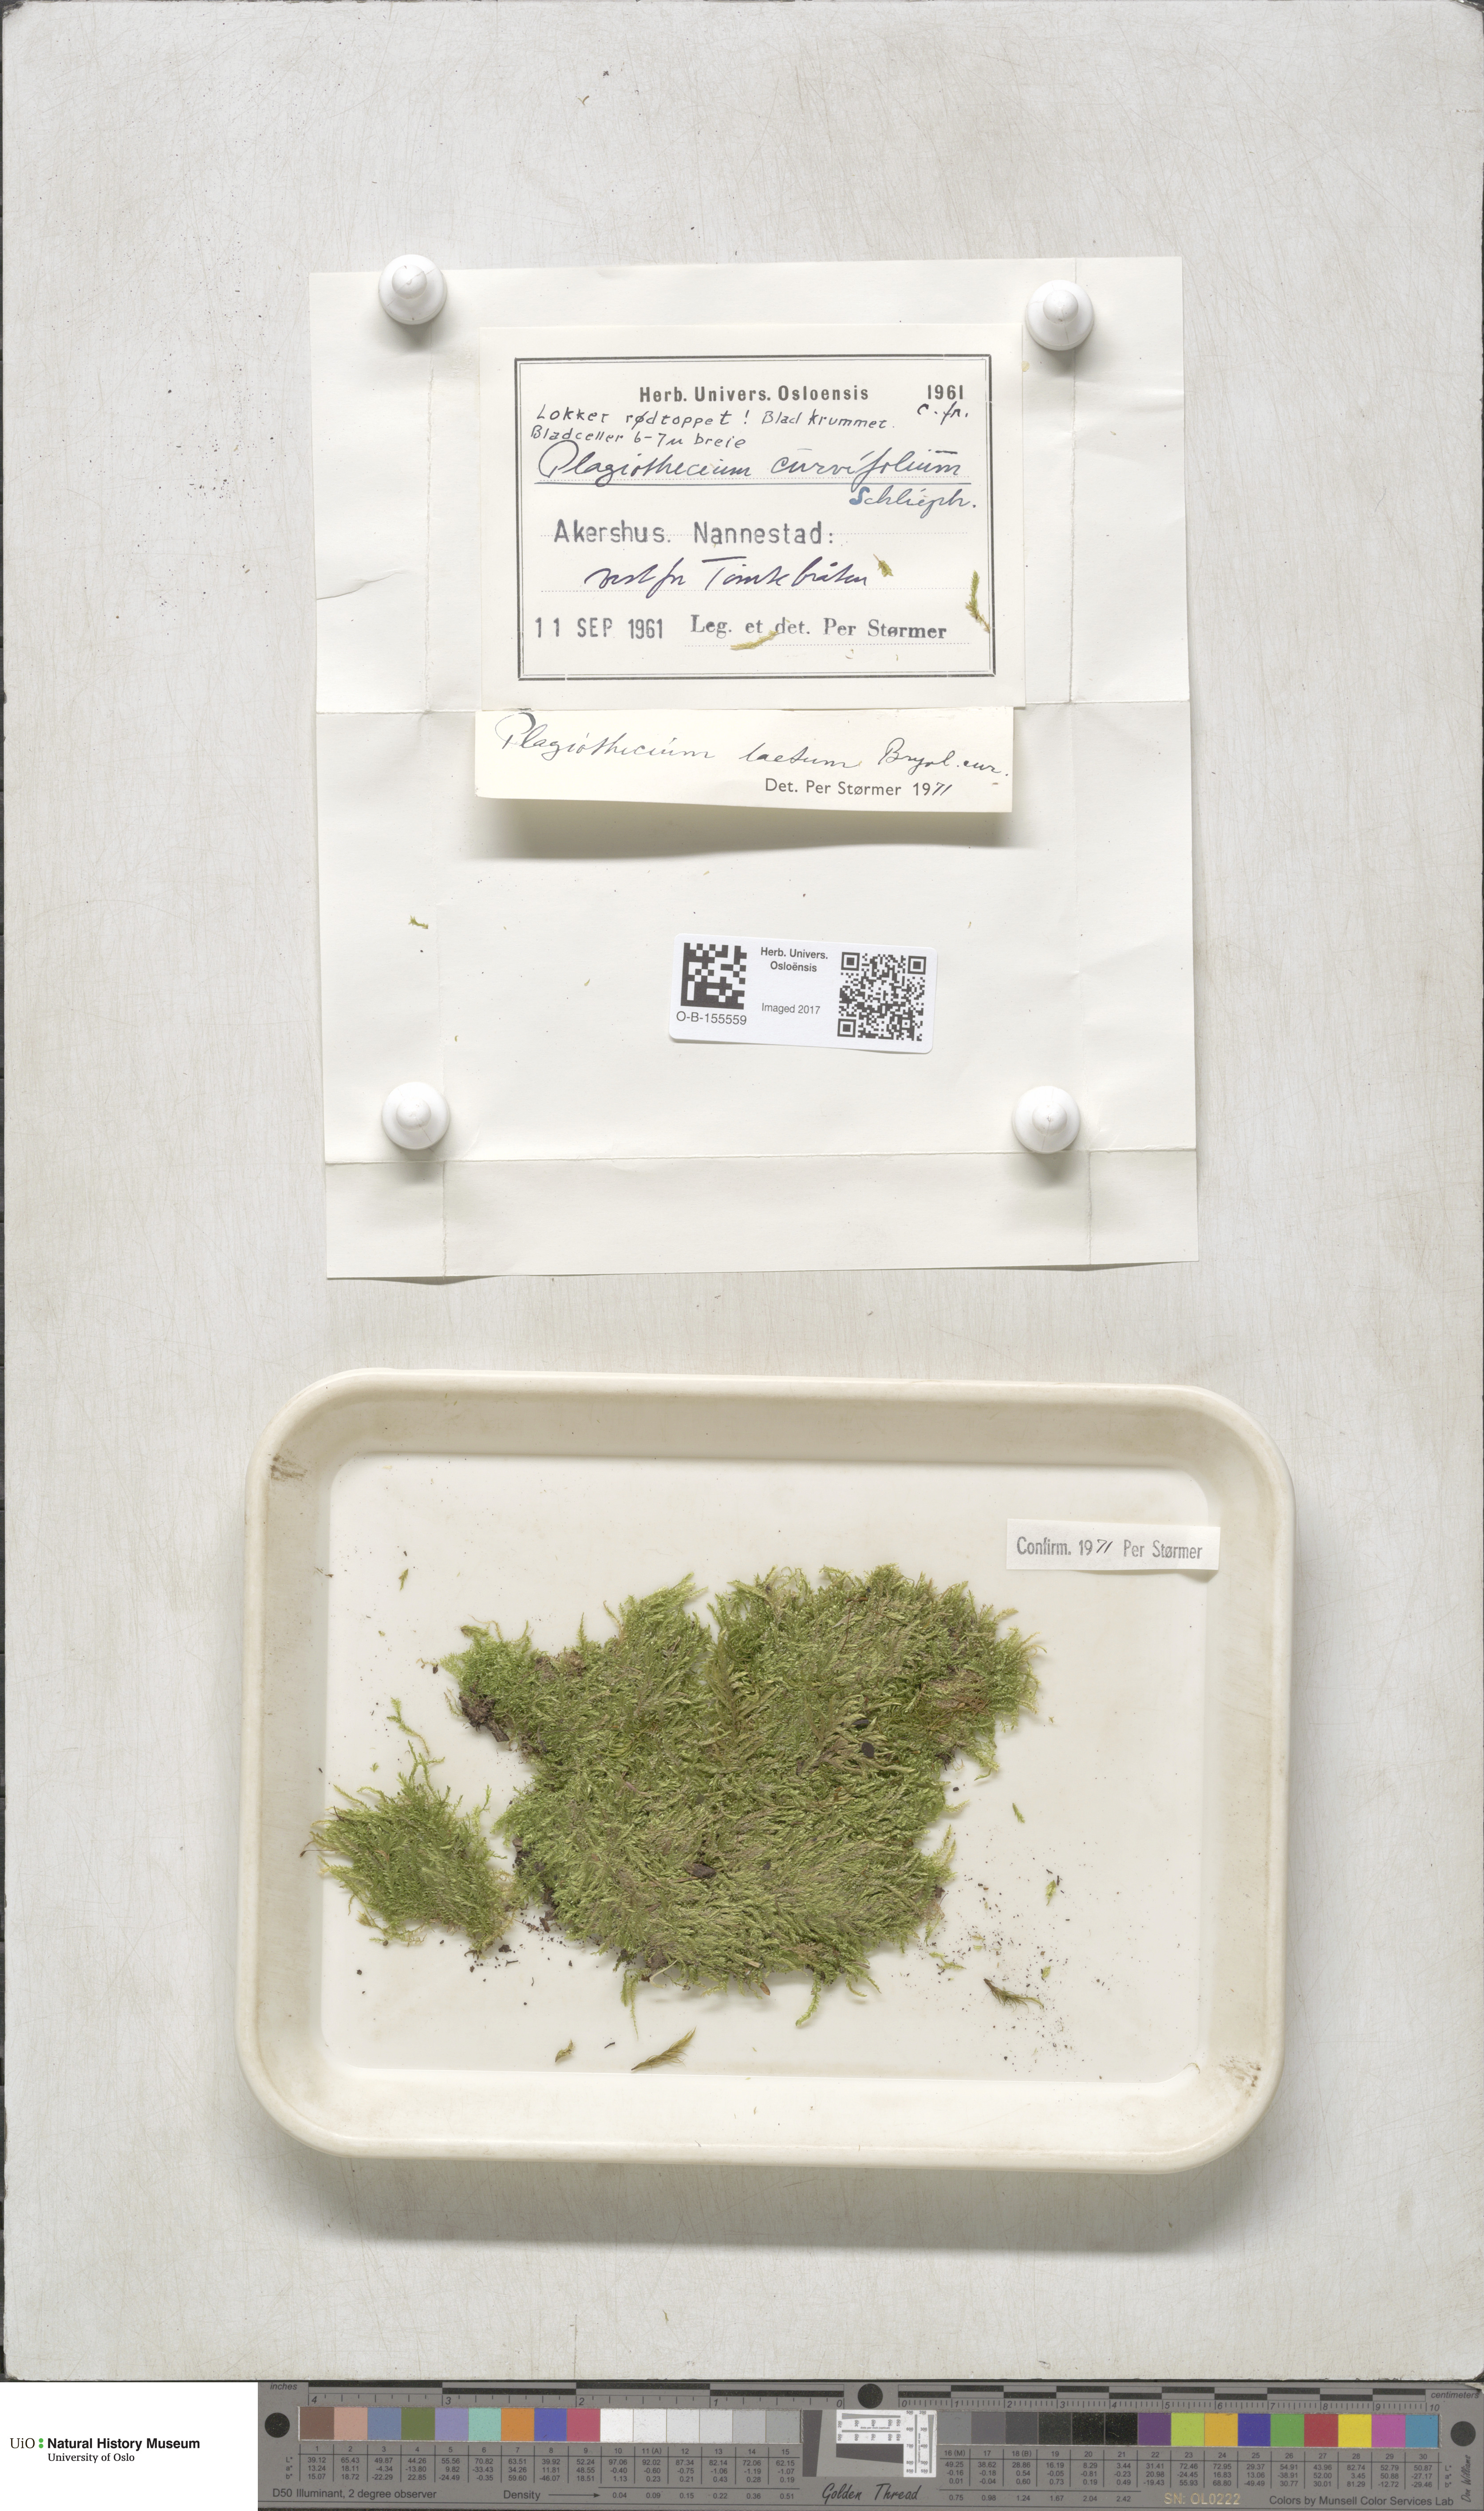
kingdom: Plantae
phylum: Bryophyta
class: Bryopsida
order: Hypnales
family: Plagiotheciaceae
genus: Plagiothecium
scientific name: Plagiothecium laetum
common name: Bright silk moss
